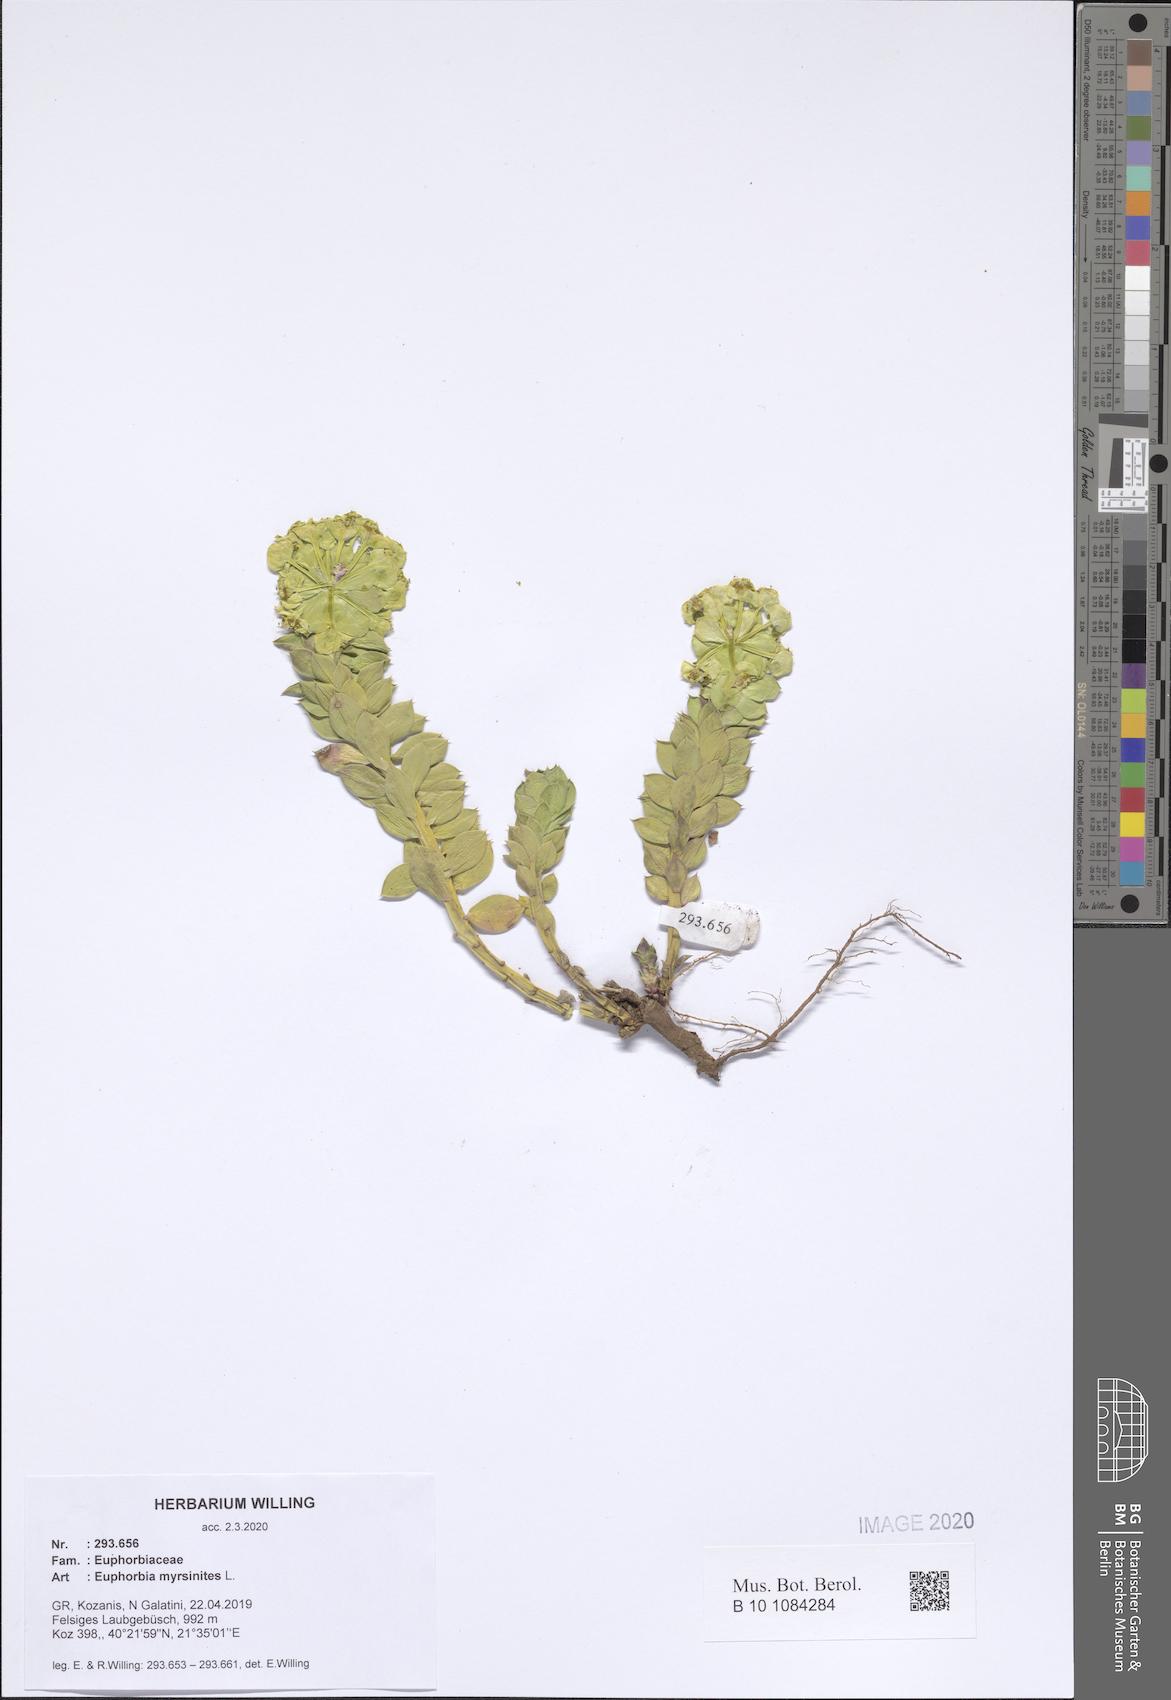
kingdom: Plantae
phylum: Tracheophyta
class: Magnoliopsida
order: Malpighiales
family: Euphorbiaceae
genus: Euphorbia
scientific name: Euphorbia myrsinites
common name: Myrtle spurge
